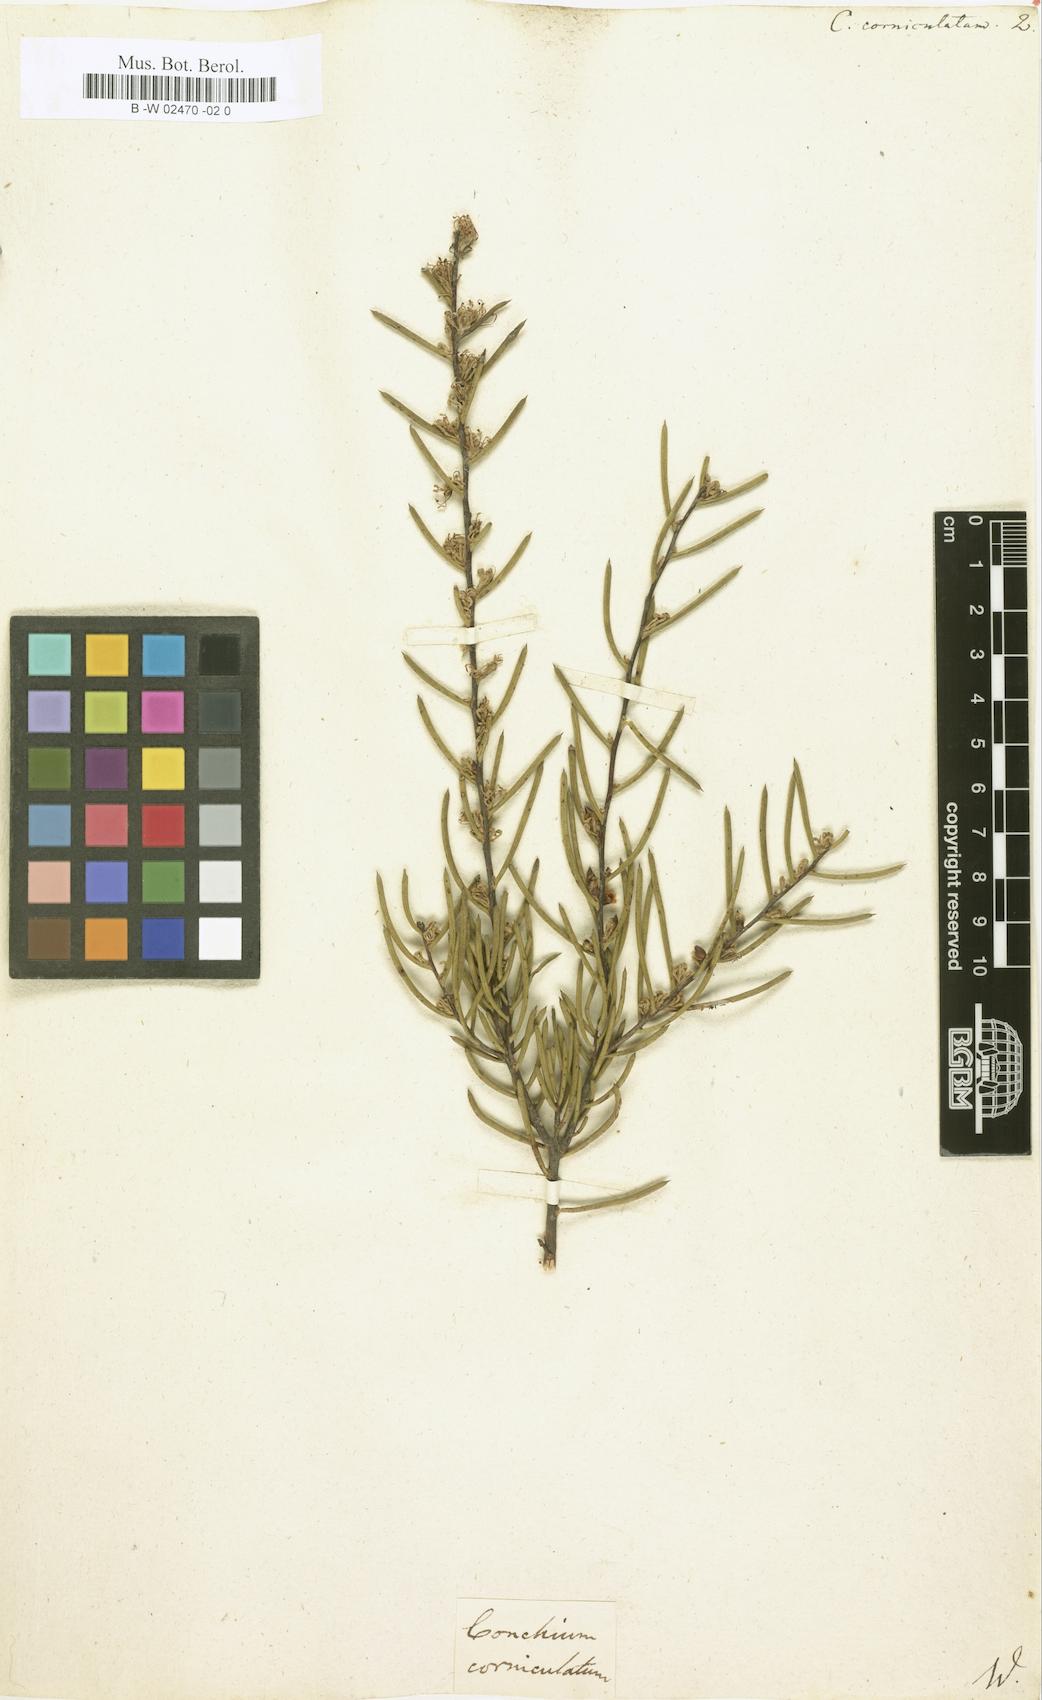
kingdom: Plantae
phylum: Tracheophyta
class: Magnoliopsida
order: Proteales
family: Proteaceae
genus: Hakea
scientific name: Hakea teretifolia
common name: Dagger hakea
